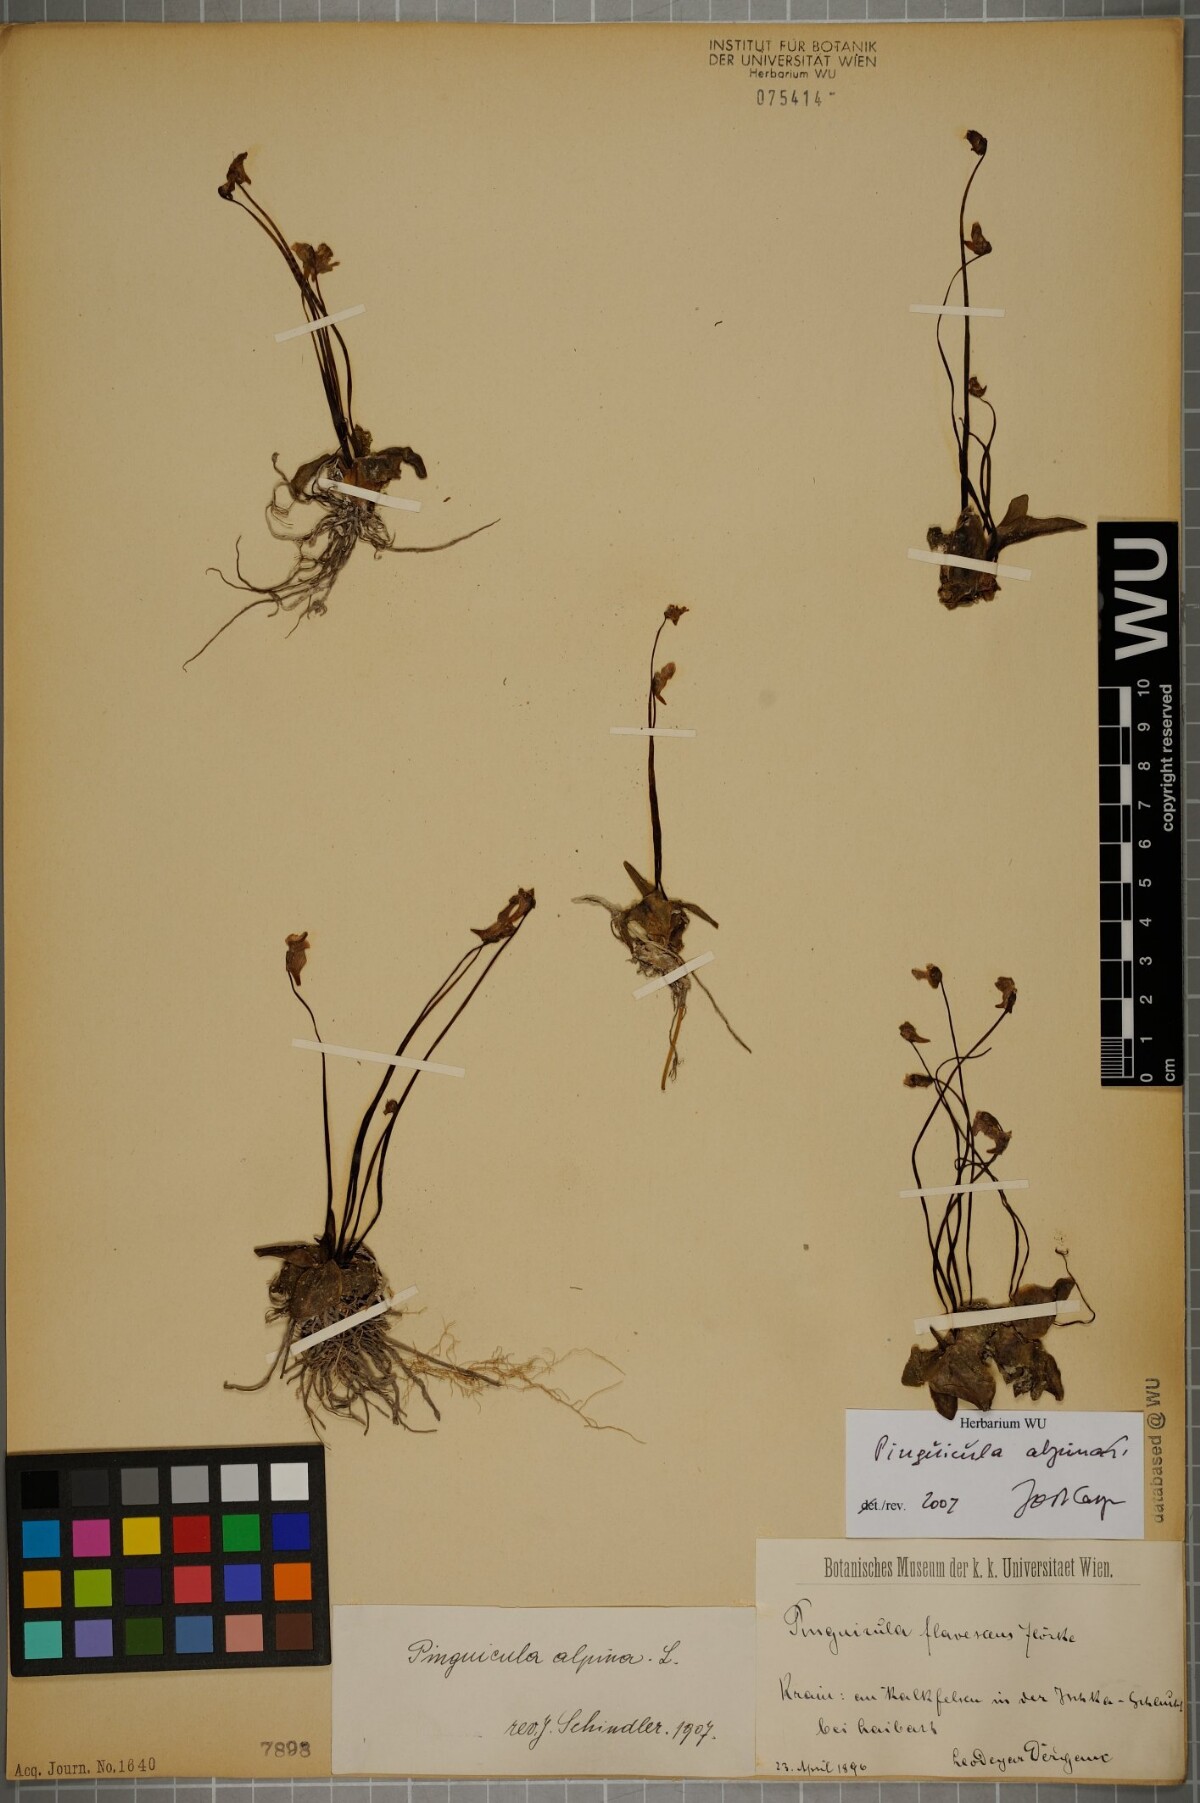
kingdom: Plantae
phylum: Tracheophyta
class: Magnoliopsida
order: Lamiales
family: Lentibulariaceae
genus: Pinguicula
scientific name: Pinguicula alpina
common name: Alpine butterwort
